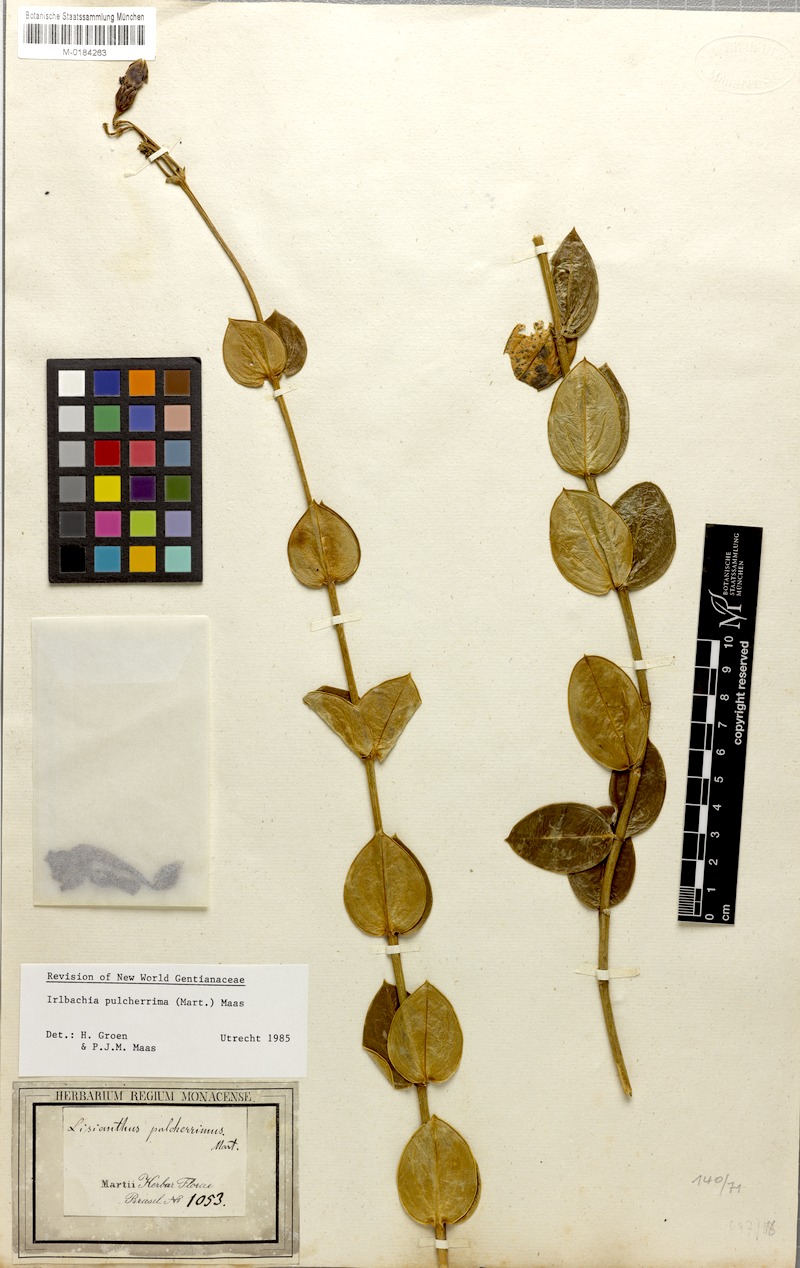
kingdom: Plantae
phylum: Tracheophyta
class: Magnoliopsida
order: Gentianales
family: Gentianaceae
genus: Calolisianthus
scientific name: Calolisianthus pulcherrimus
